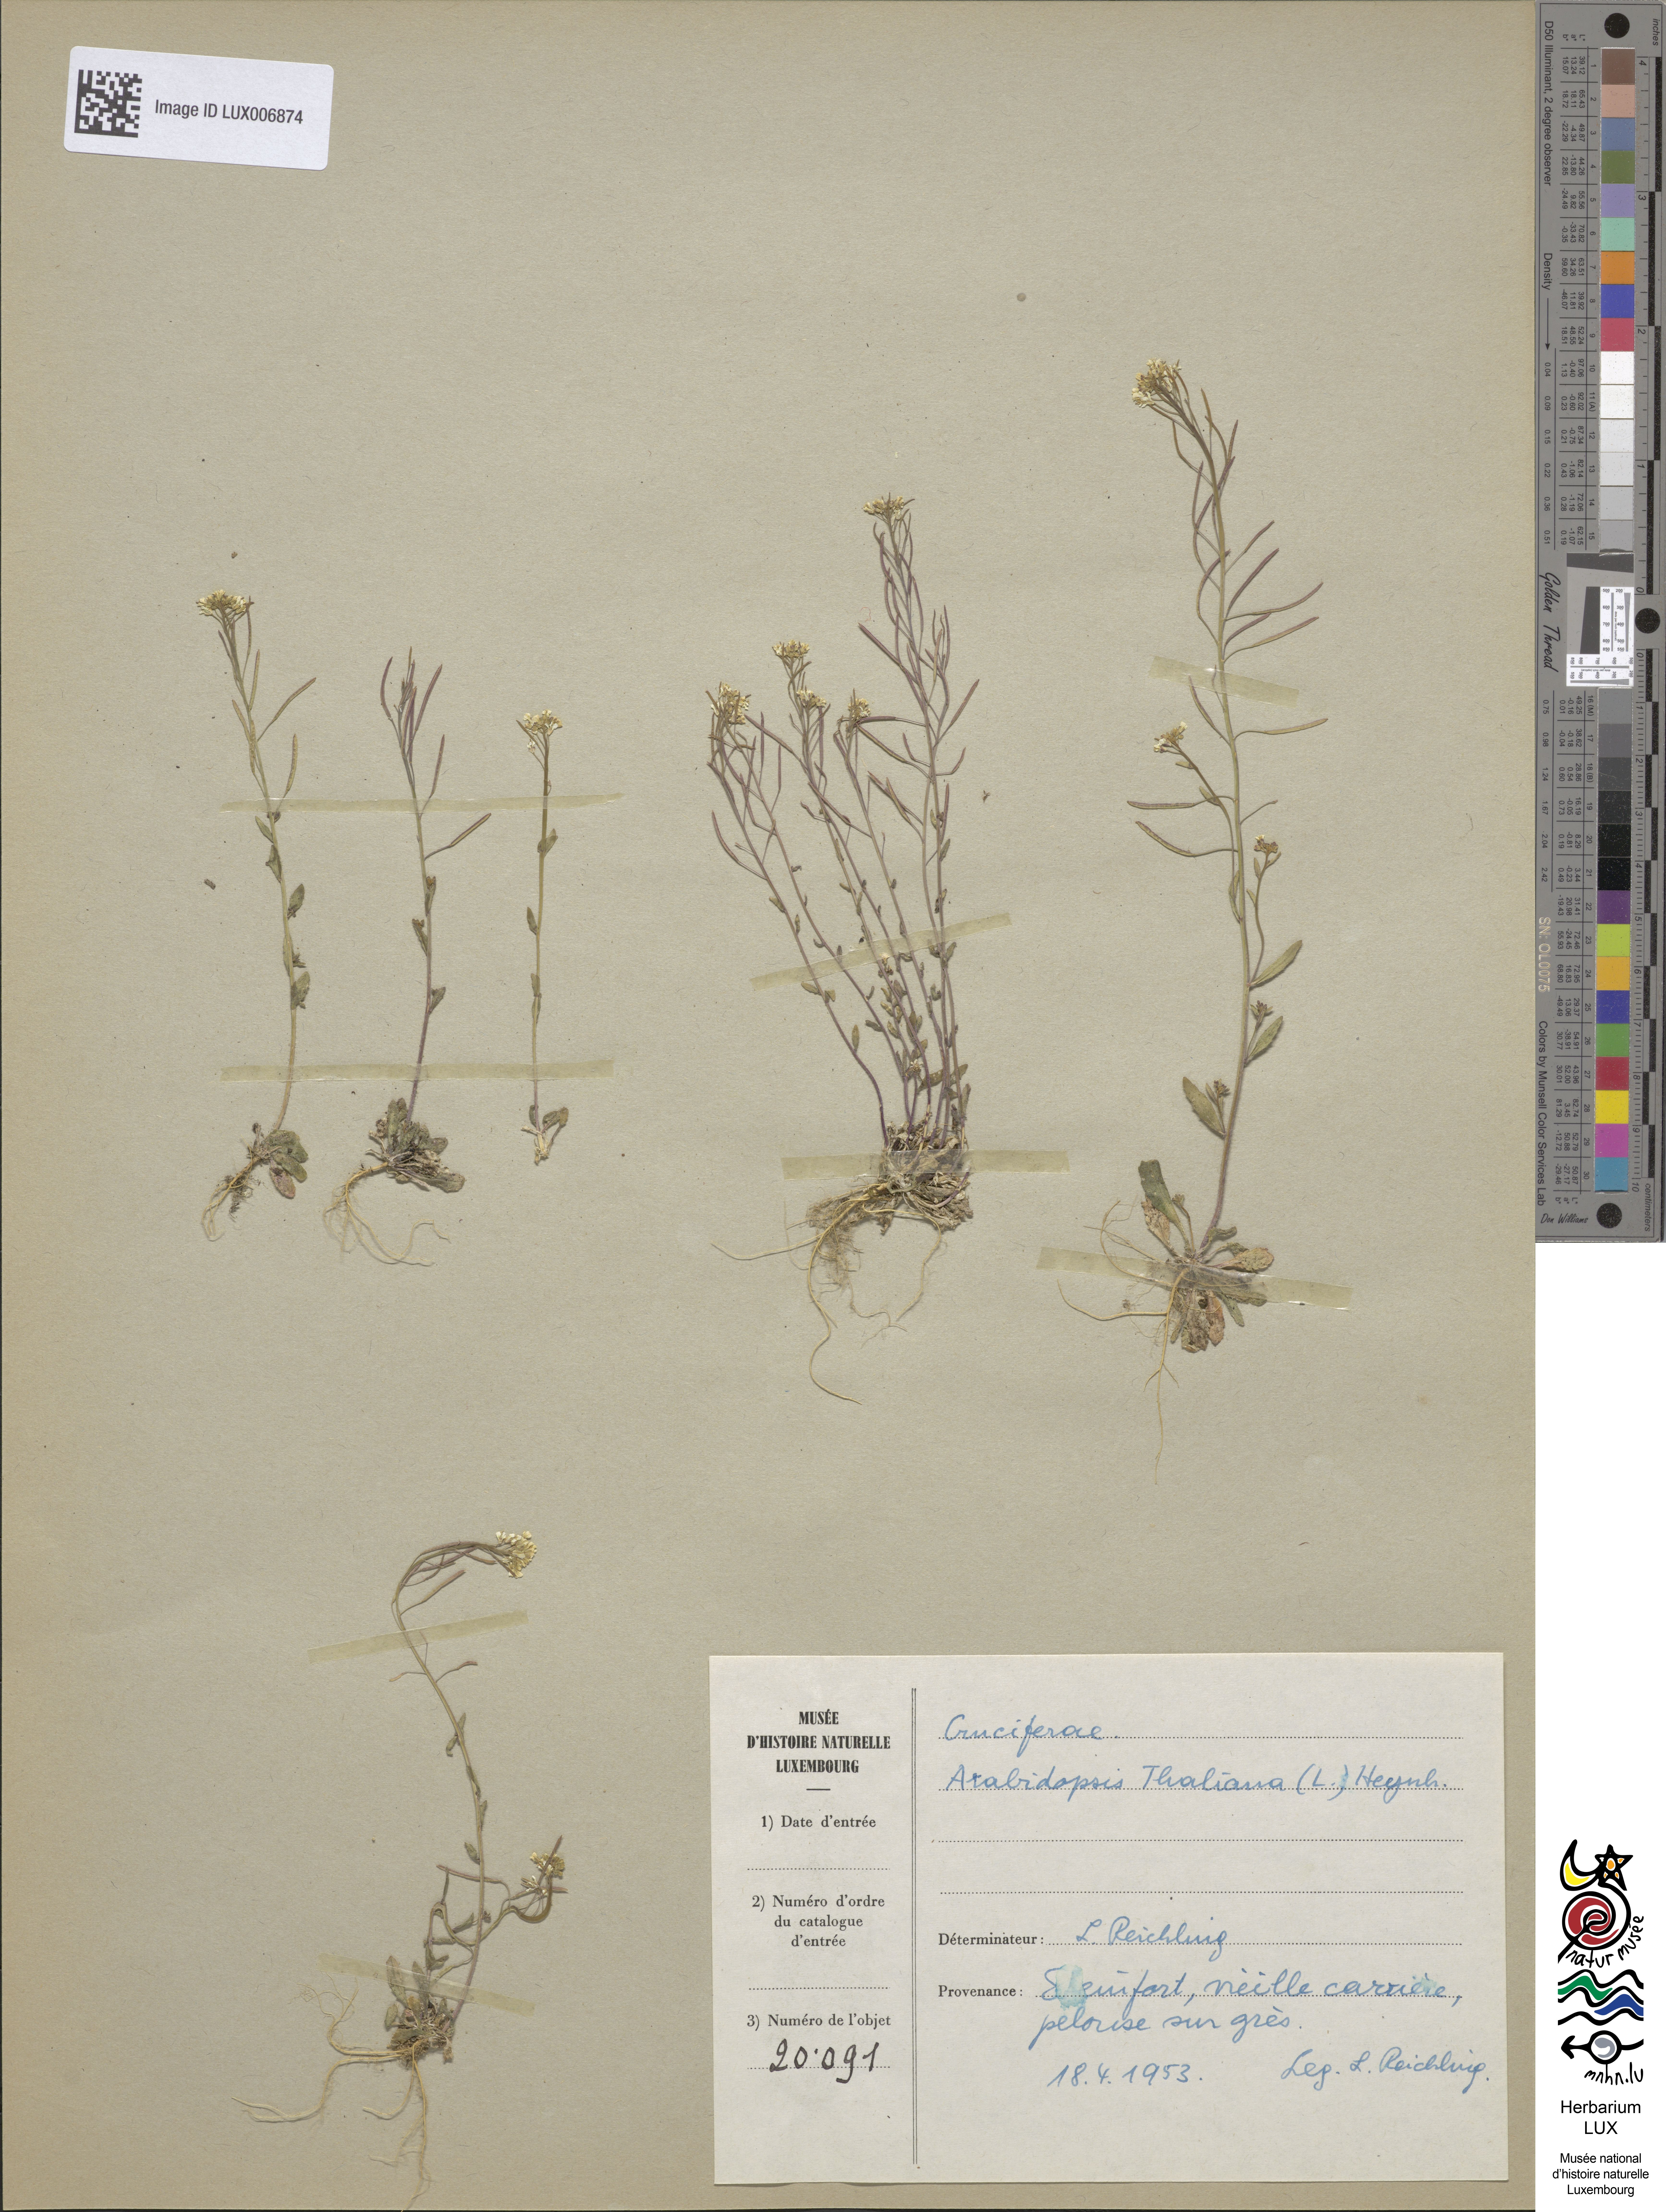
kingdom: Plantae
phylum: Tracheophyta
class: Magnoliopsida
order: Brassicales
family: Brassicaceae
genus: Arabidopsis
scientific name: Arabidopsis thaliana
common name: Thale cress
